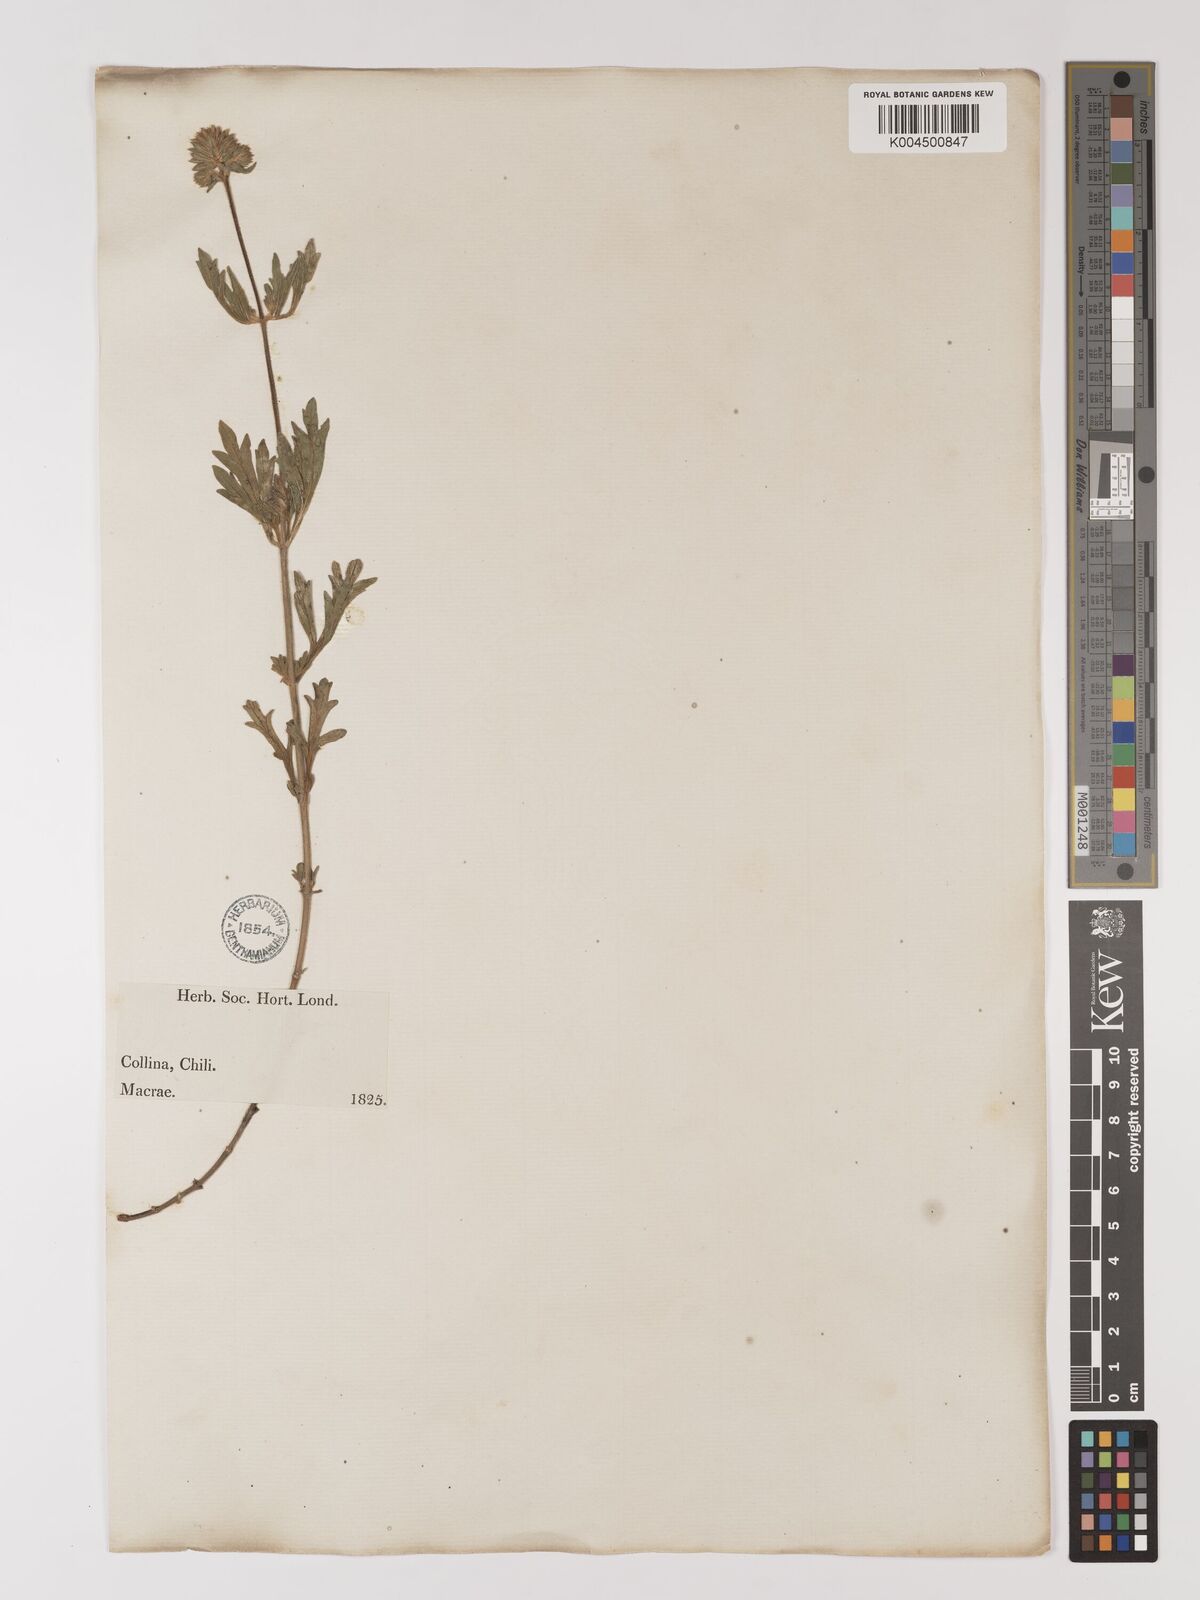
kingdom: Plantae
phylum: Tracheophyta
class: Magnoliopsida
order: Lamiales
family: Verbenaceae
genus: Verbena
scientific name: Verbena
